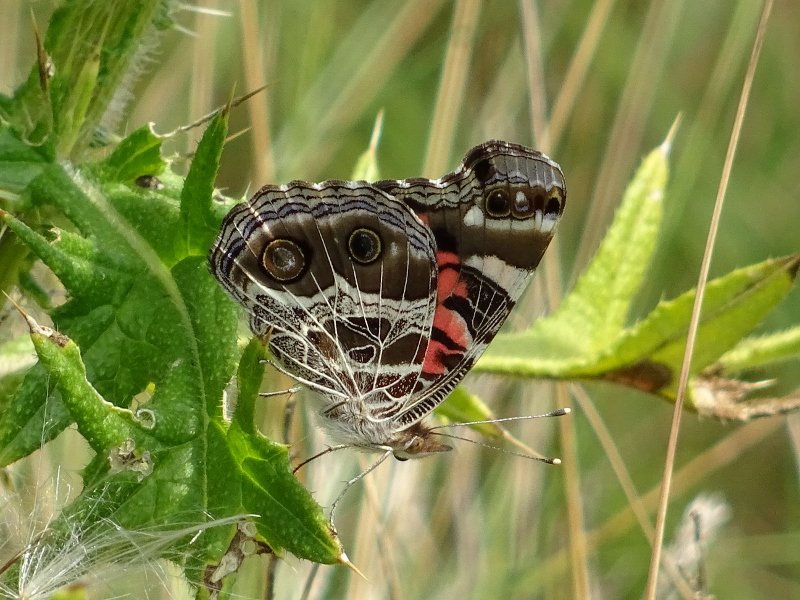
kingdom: Animalia
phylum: Arthropoda
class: Insecta
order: Lepidoptera
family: Nymphalidae
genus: Vanessa
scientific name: Vanessa virginiensis
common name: American Lady
